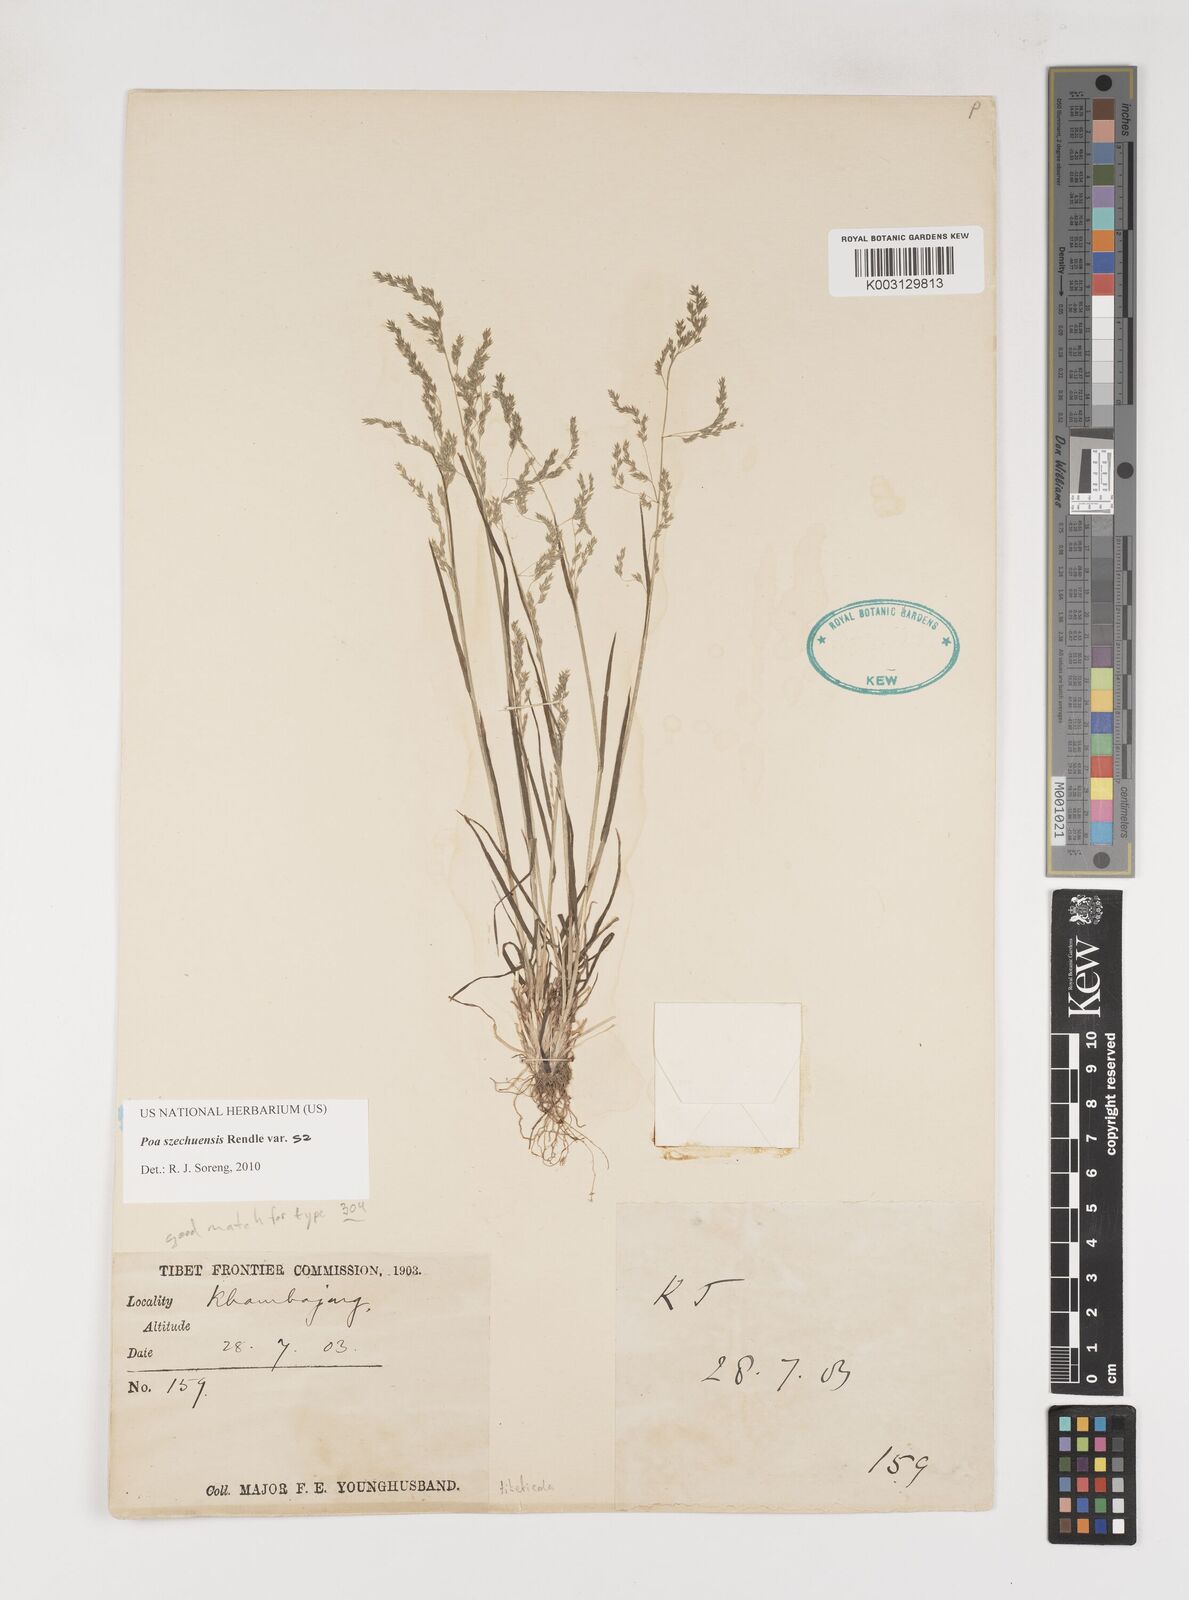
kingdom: Plantae
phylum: Tracheophyta
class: Liliopsida
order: Poales
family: Poaceae
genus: Poa
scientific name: Poa szechuensis
